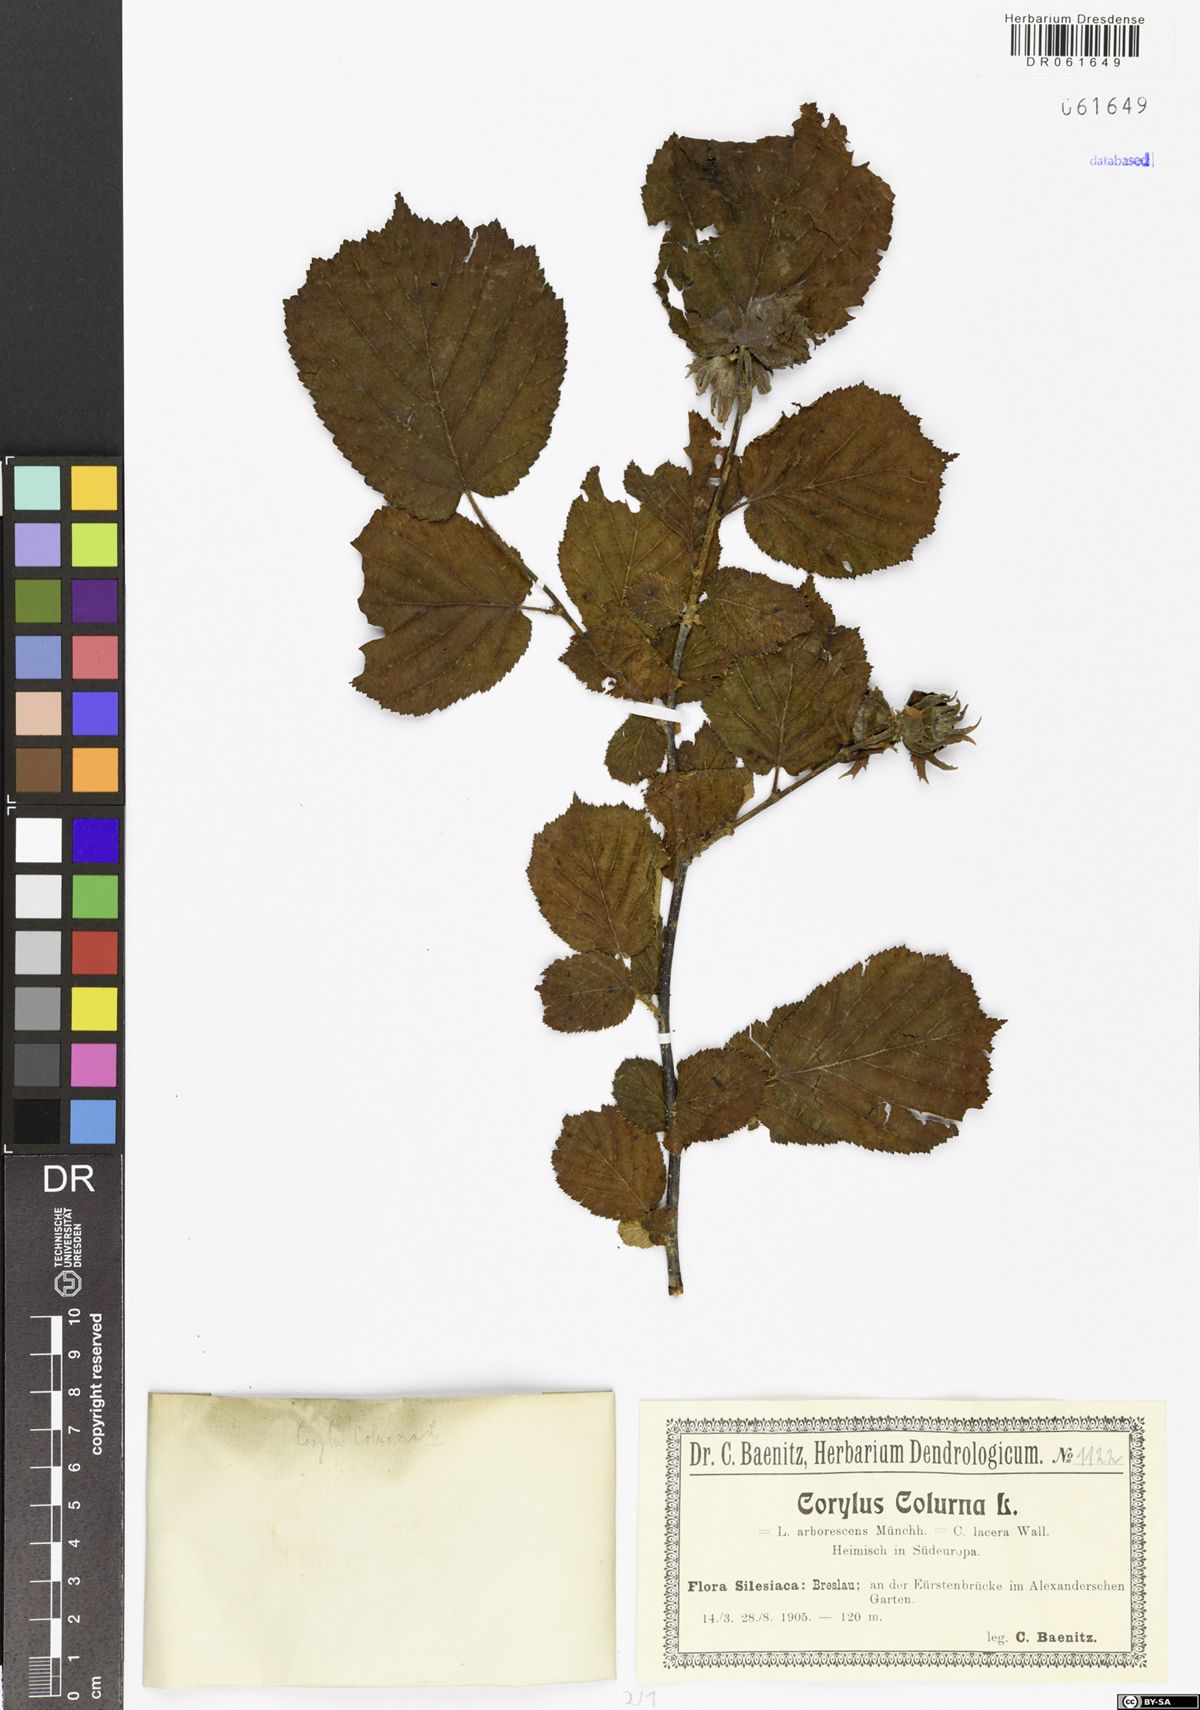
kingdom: Plantae
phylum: Tracheophyta
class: Magnoliopsida
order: Fagales
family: Betulaceae
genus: Corylus
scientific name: Corylus colurna
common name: Turkish hazel
